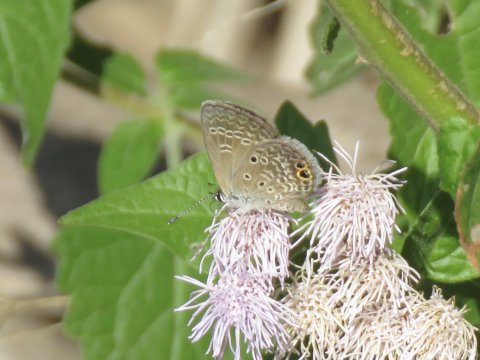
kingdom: Animalia
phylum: Arthropoda
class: Insecta
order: Lepidoptera
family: Lycaenidae
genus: Hemiargus
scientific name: Hemiargus ceraunus
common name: Ceraunus Blue
